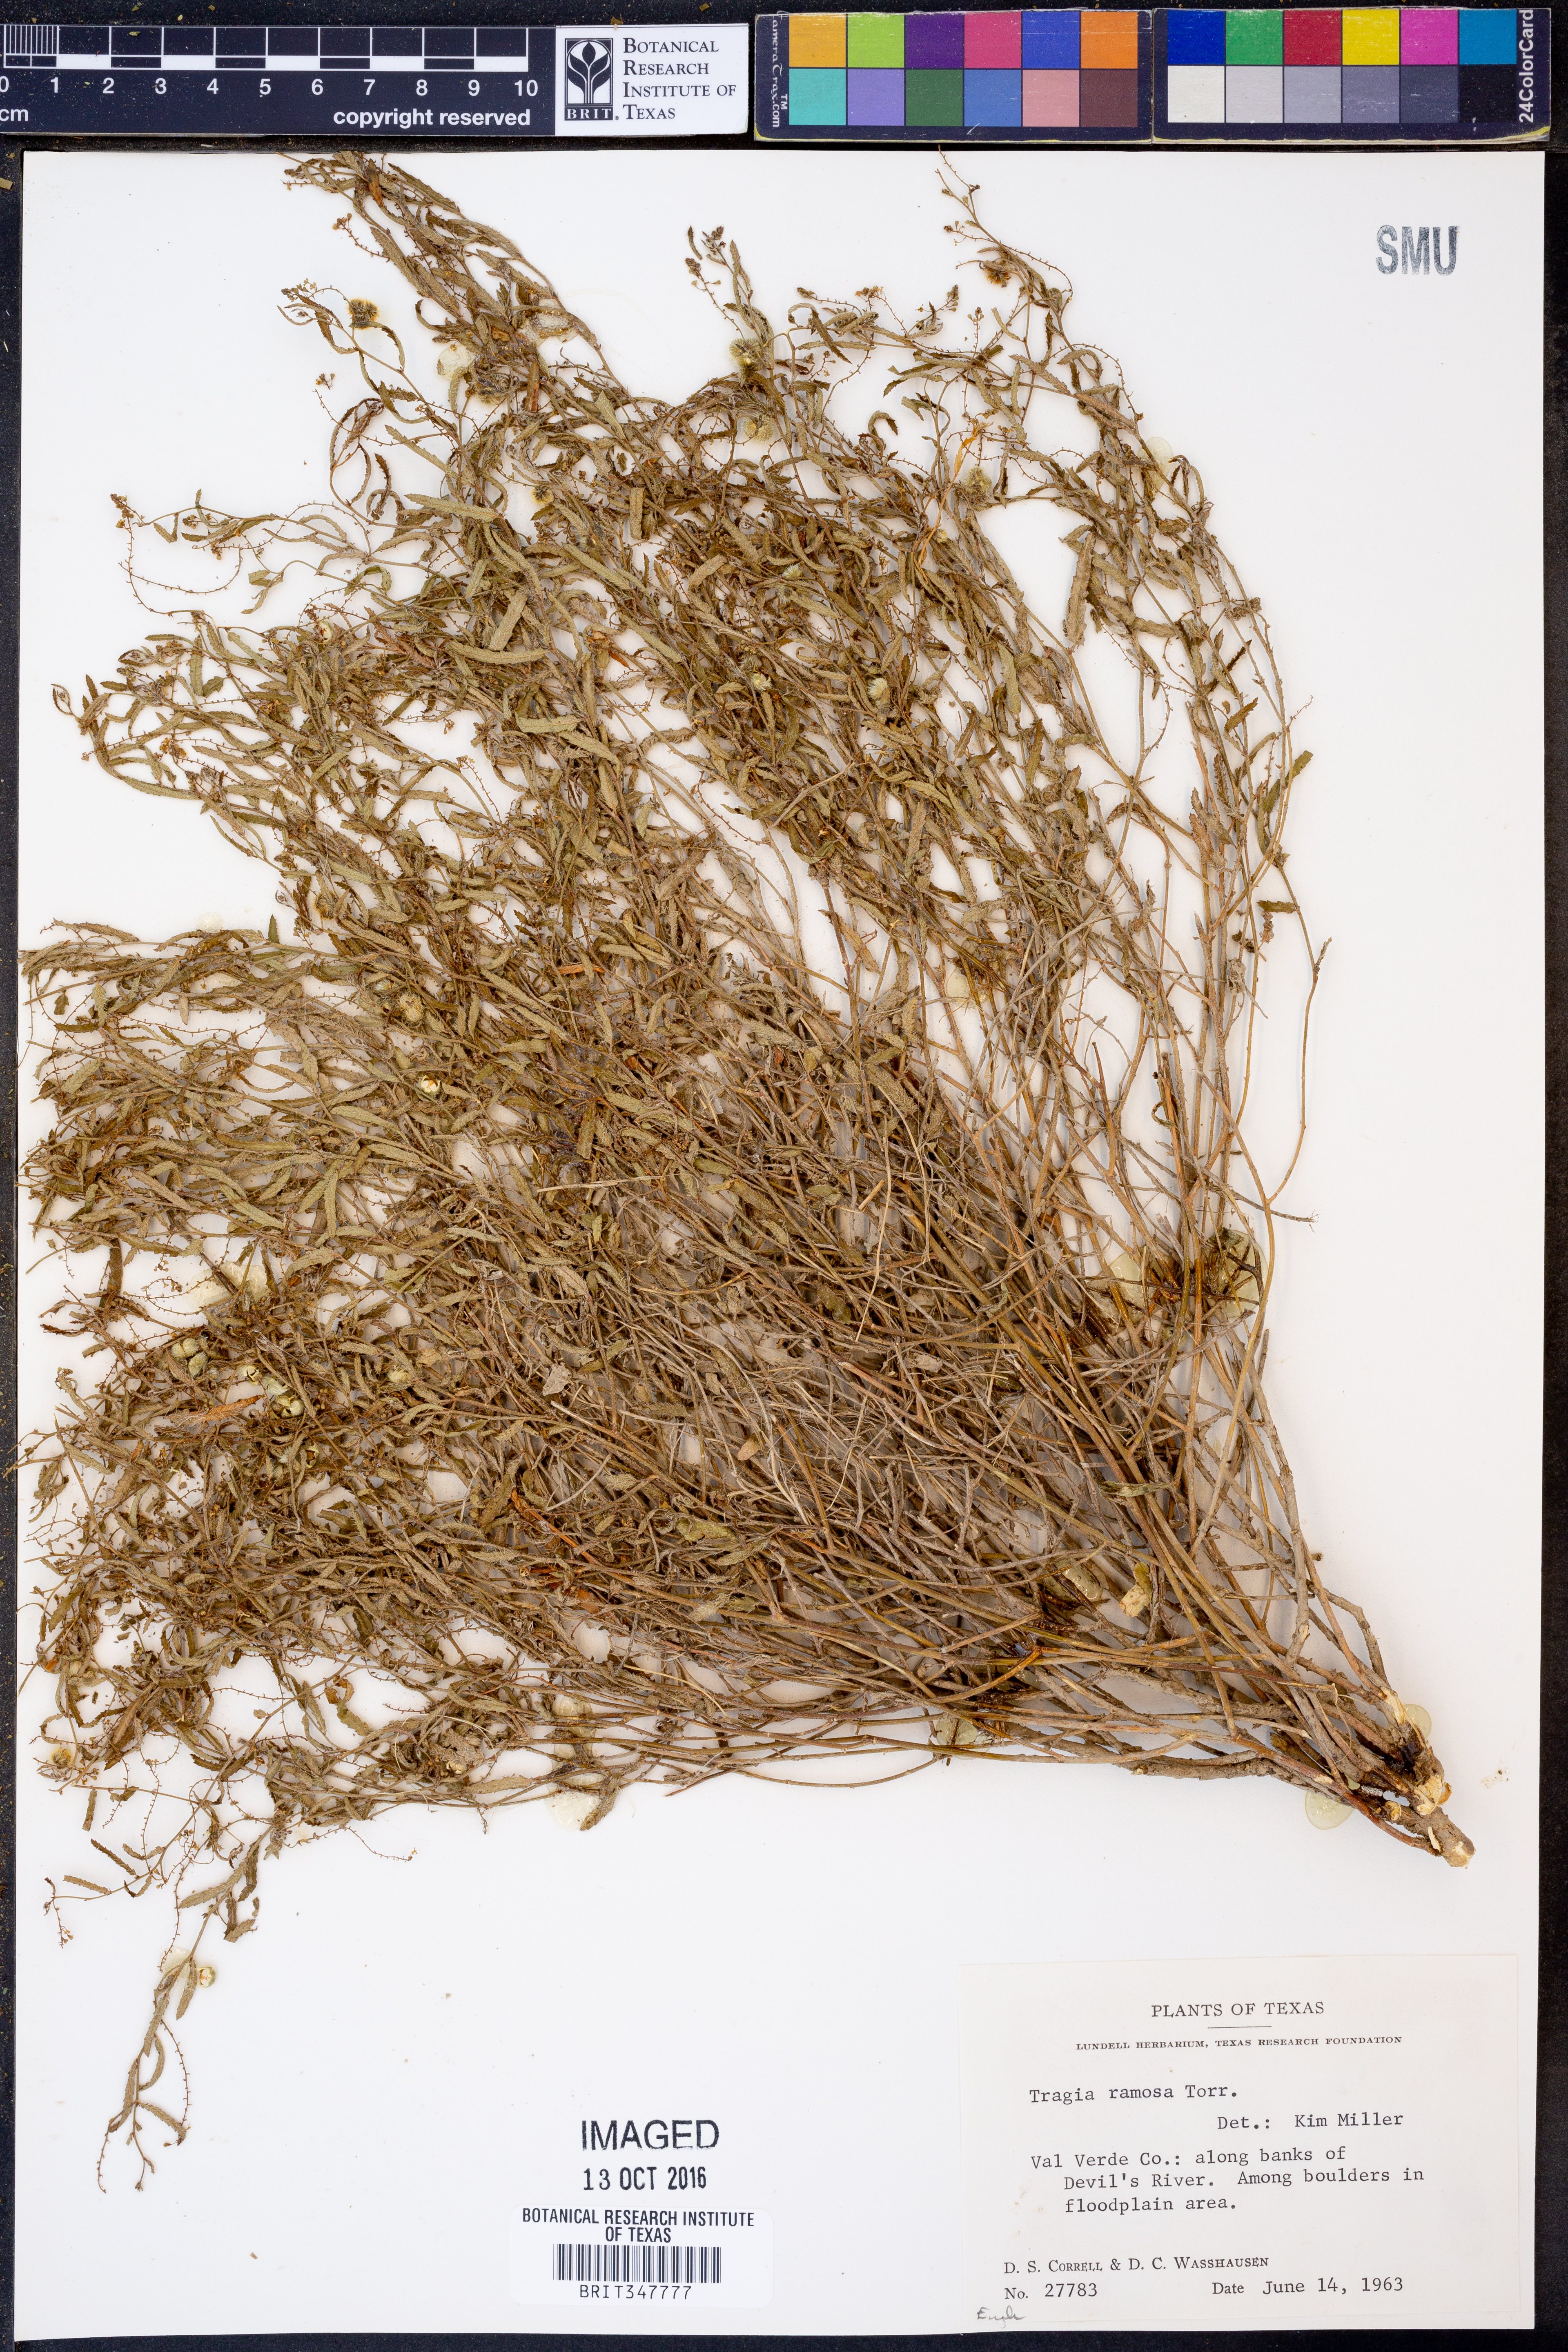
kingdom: Plantae
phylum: Tracheophyta
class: Magnoliopsida
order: Malpighiales
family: Euphorbiaceae
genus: Tragia
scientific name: Tragia ramosa
